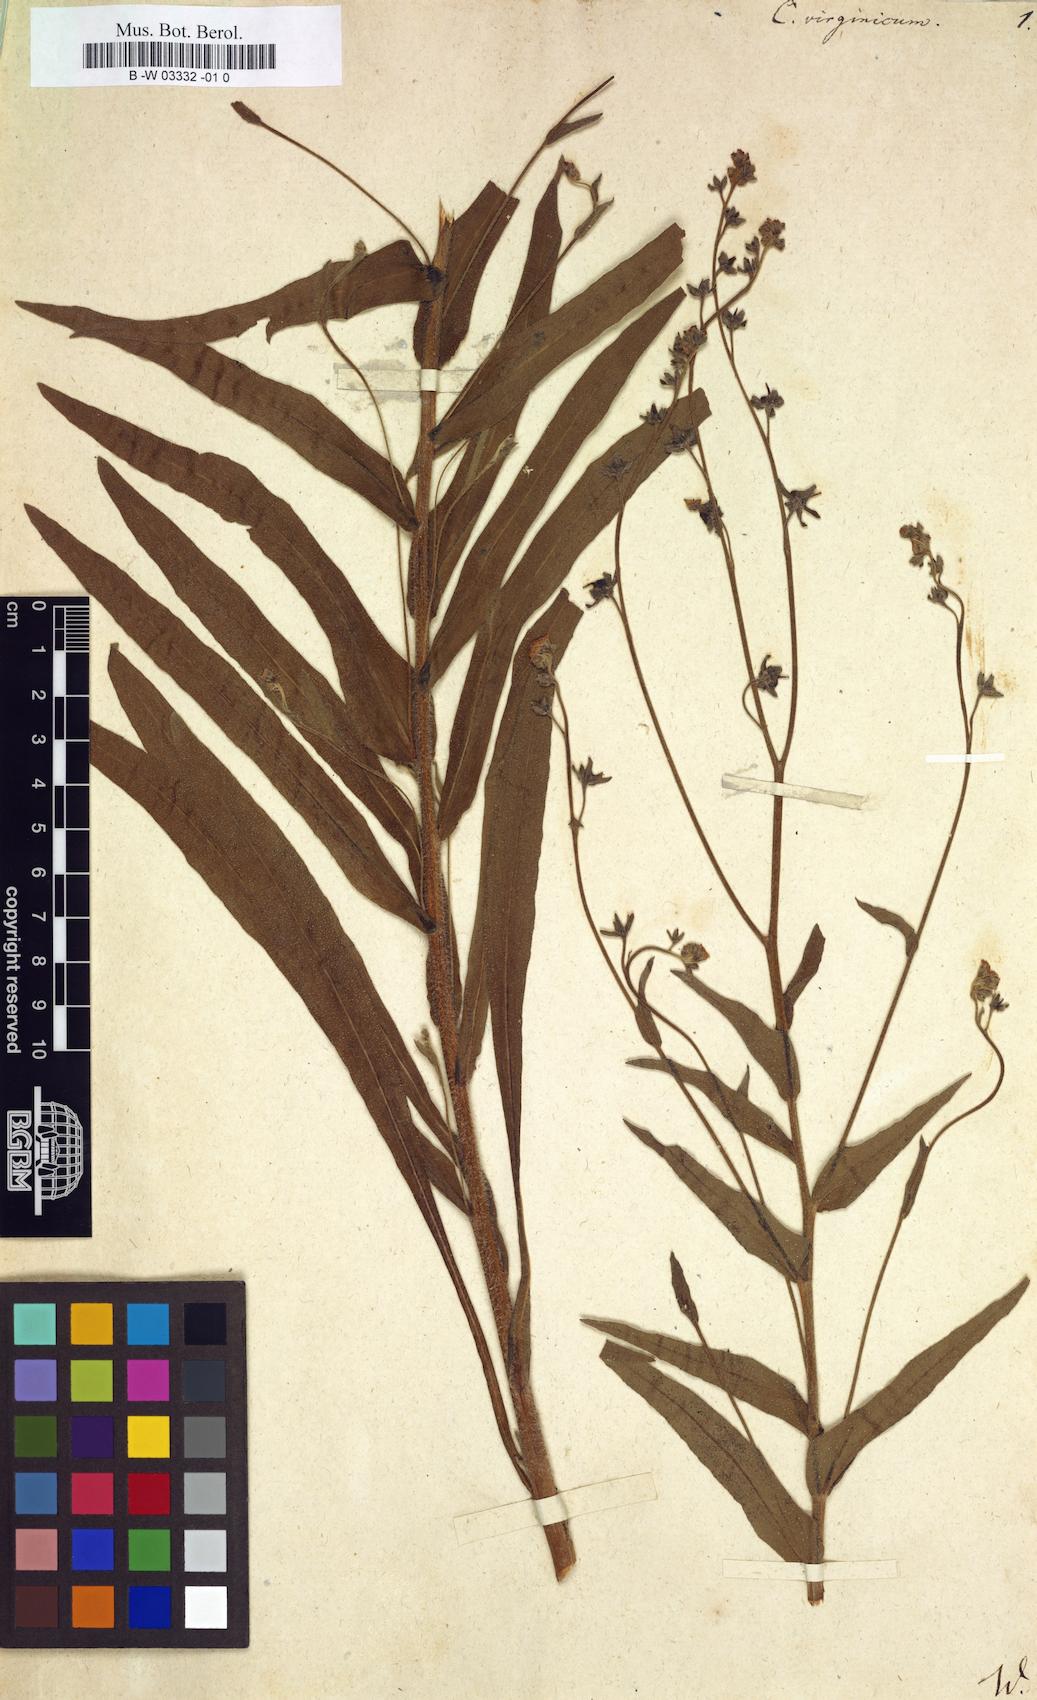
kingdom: Plantae
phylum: Tracheophyta
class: Magnoliopsida
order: Boraginales
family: Boraginaceae
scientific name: Boraginaceae
